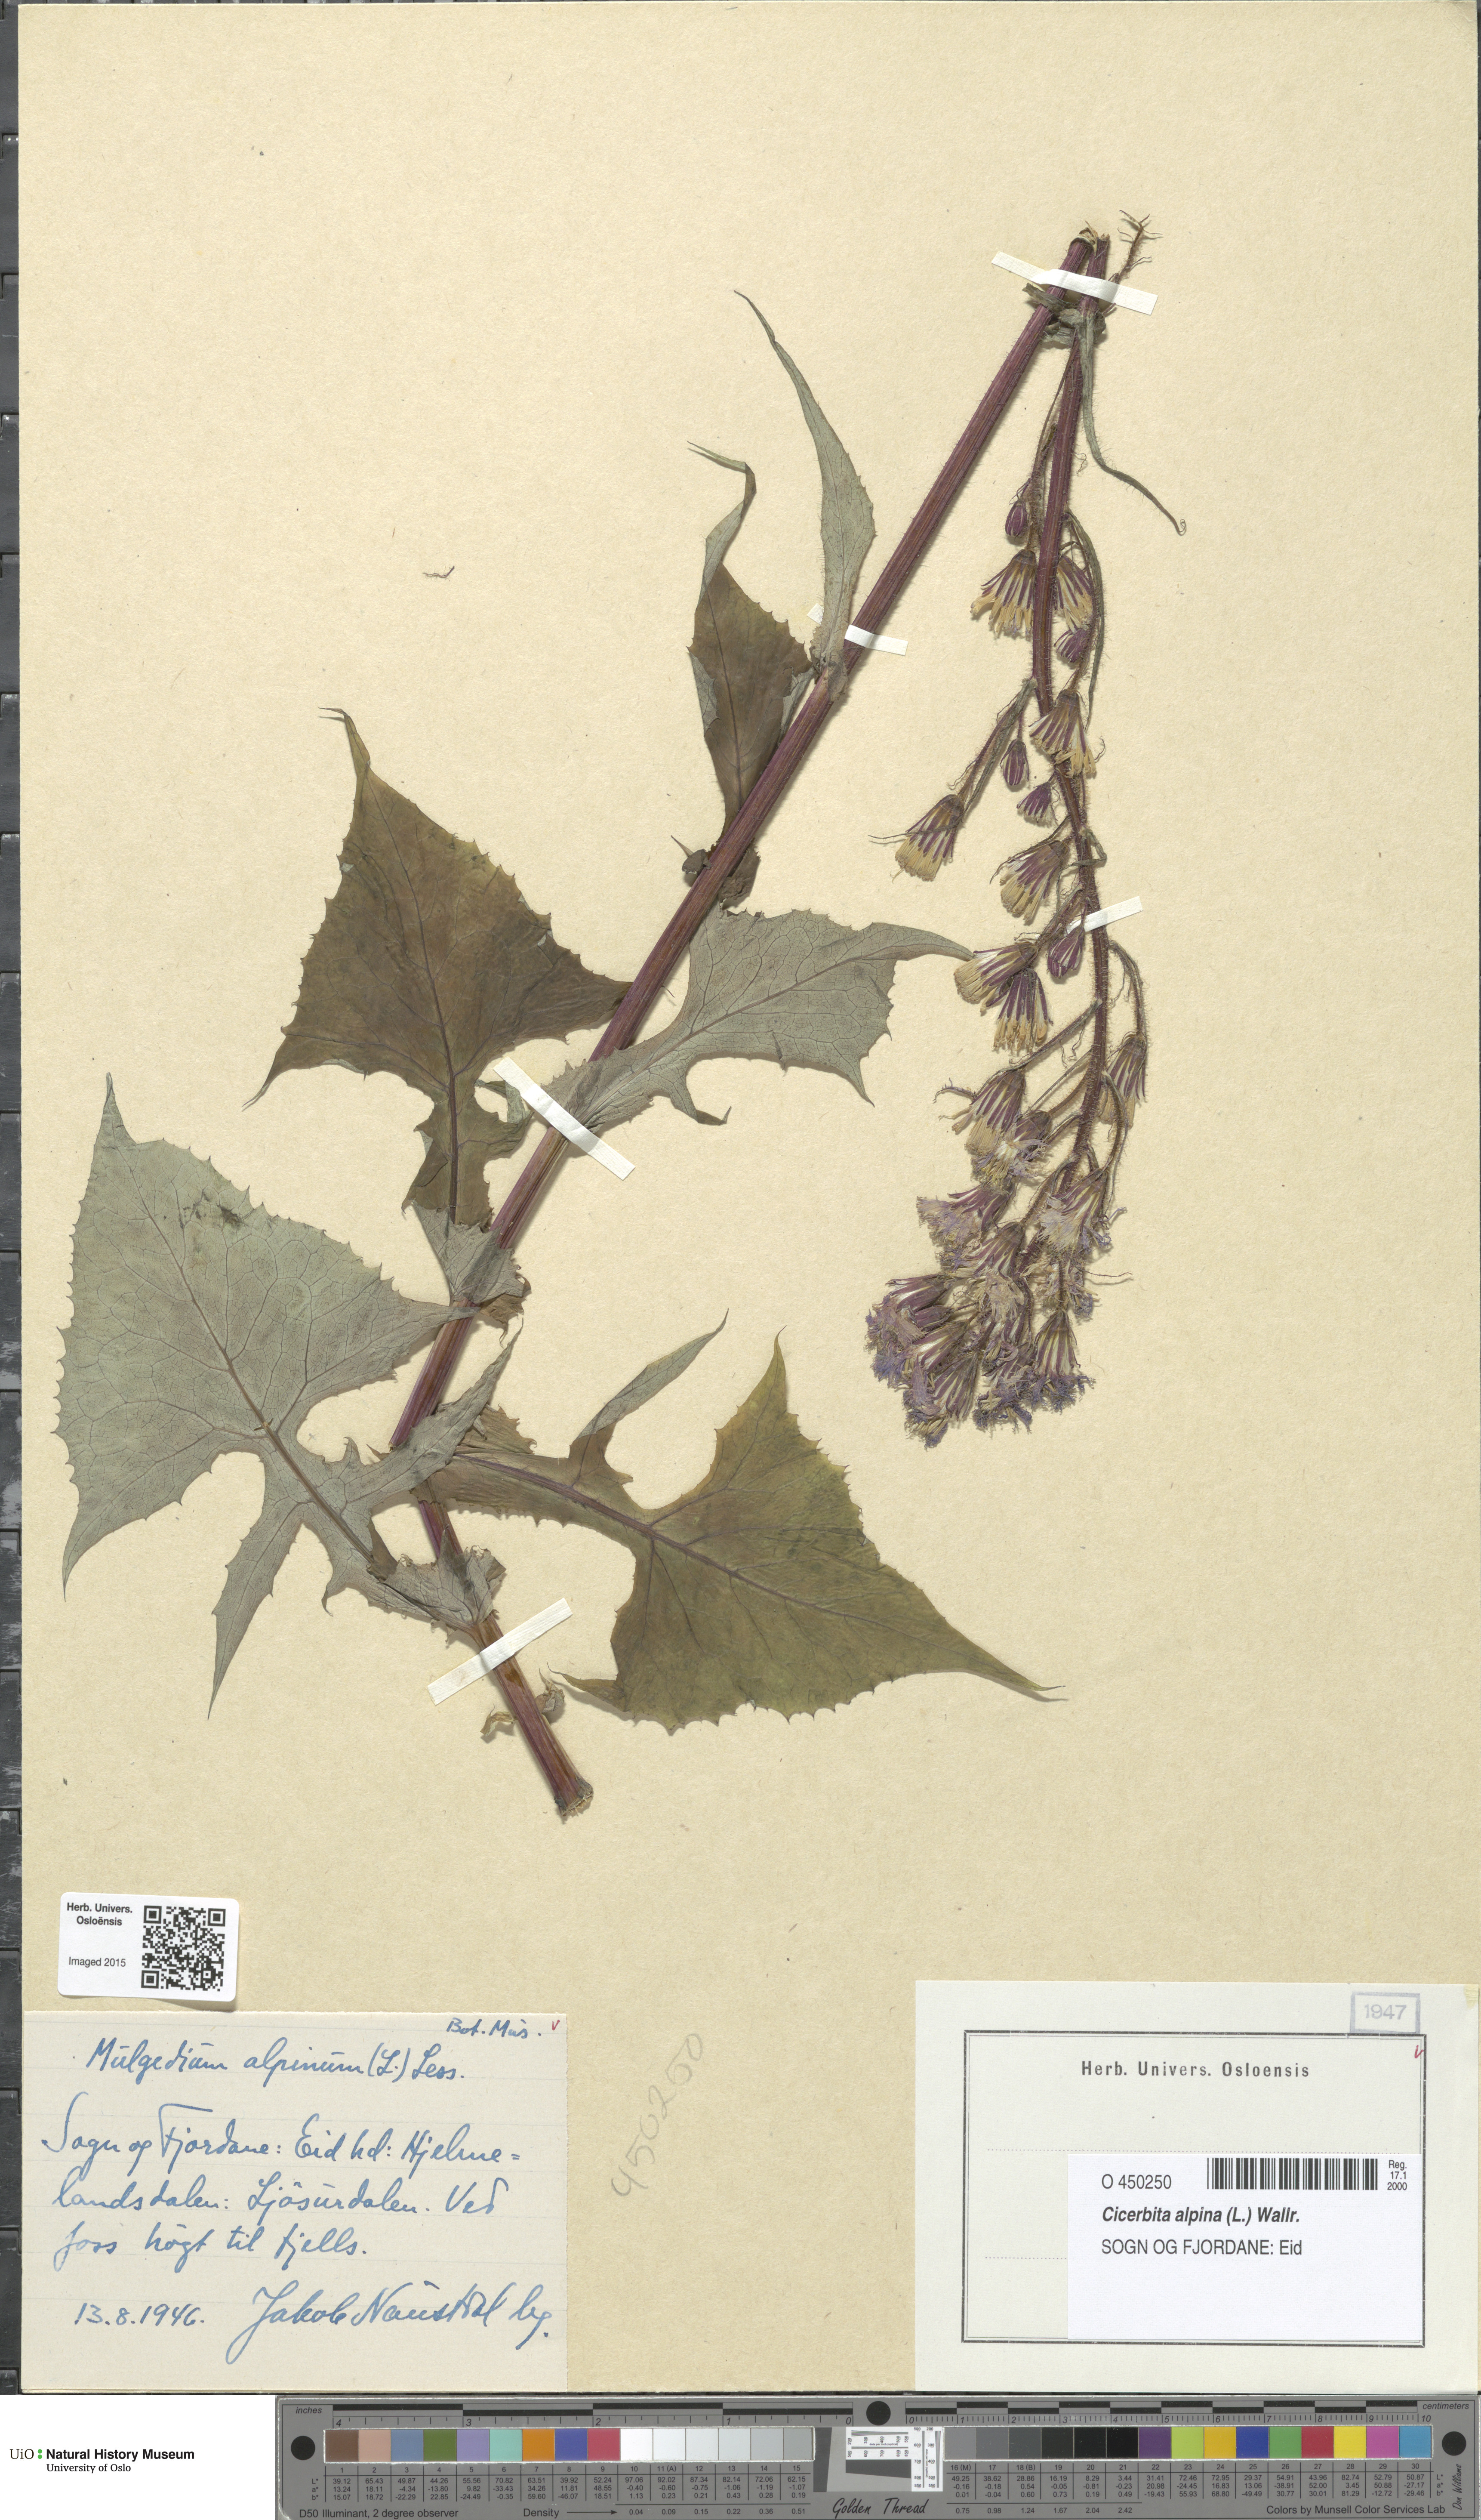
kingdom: Plantae
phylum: Tracheophyta
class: Magnoliopsida
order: Asterales
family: Asteraceae
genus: Cicerbita
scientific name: Cicerbita alpina
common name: Alpine blue-sow-thistle
